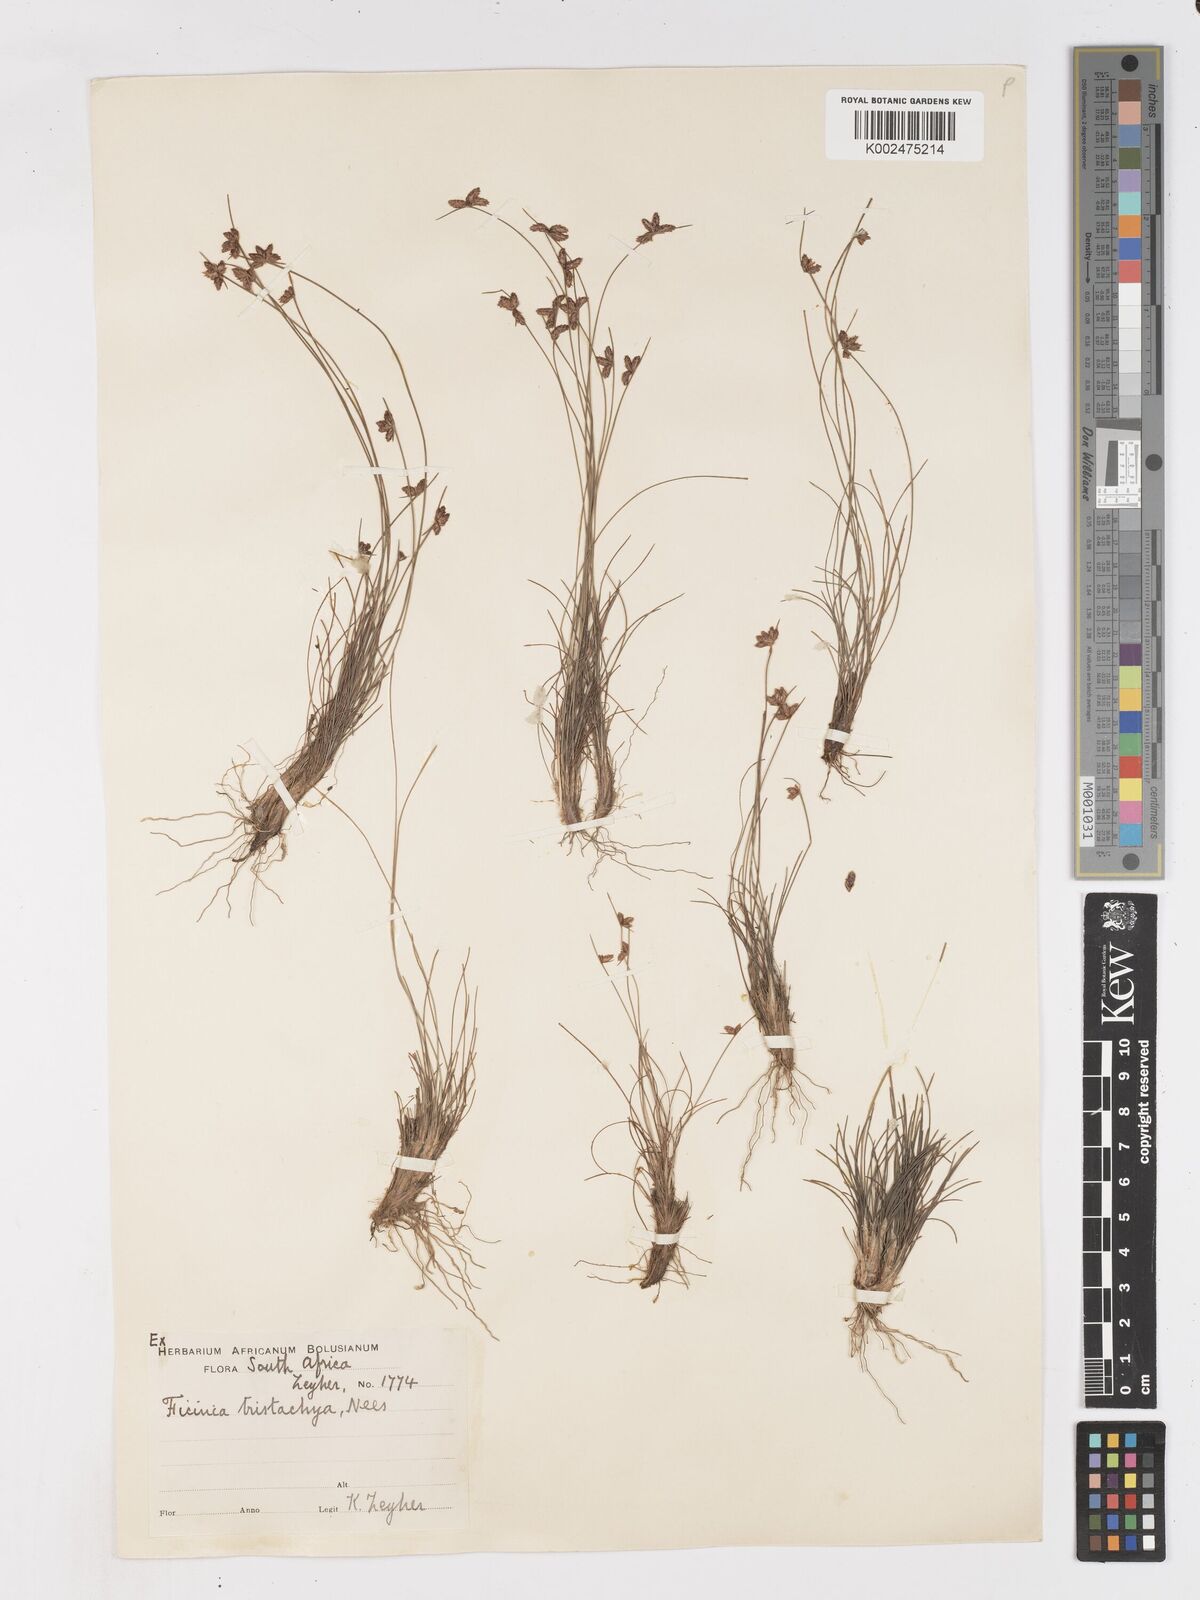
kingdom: Plantae
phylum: Tracheophyta
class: Liliopsida
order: Poales
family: Cyperaceae
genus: Ficinia
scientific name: Ficinia tristachya
